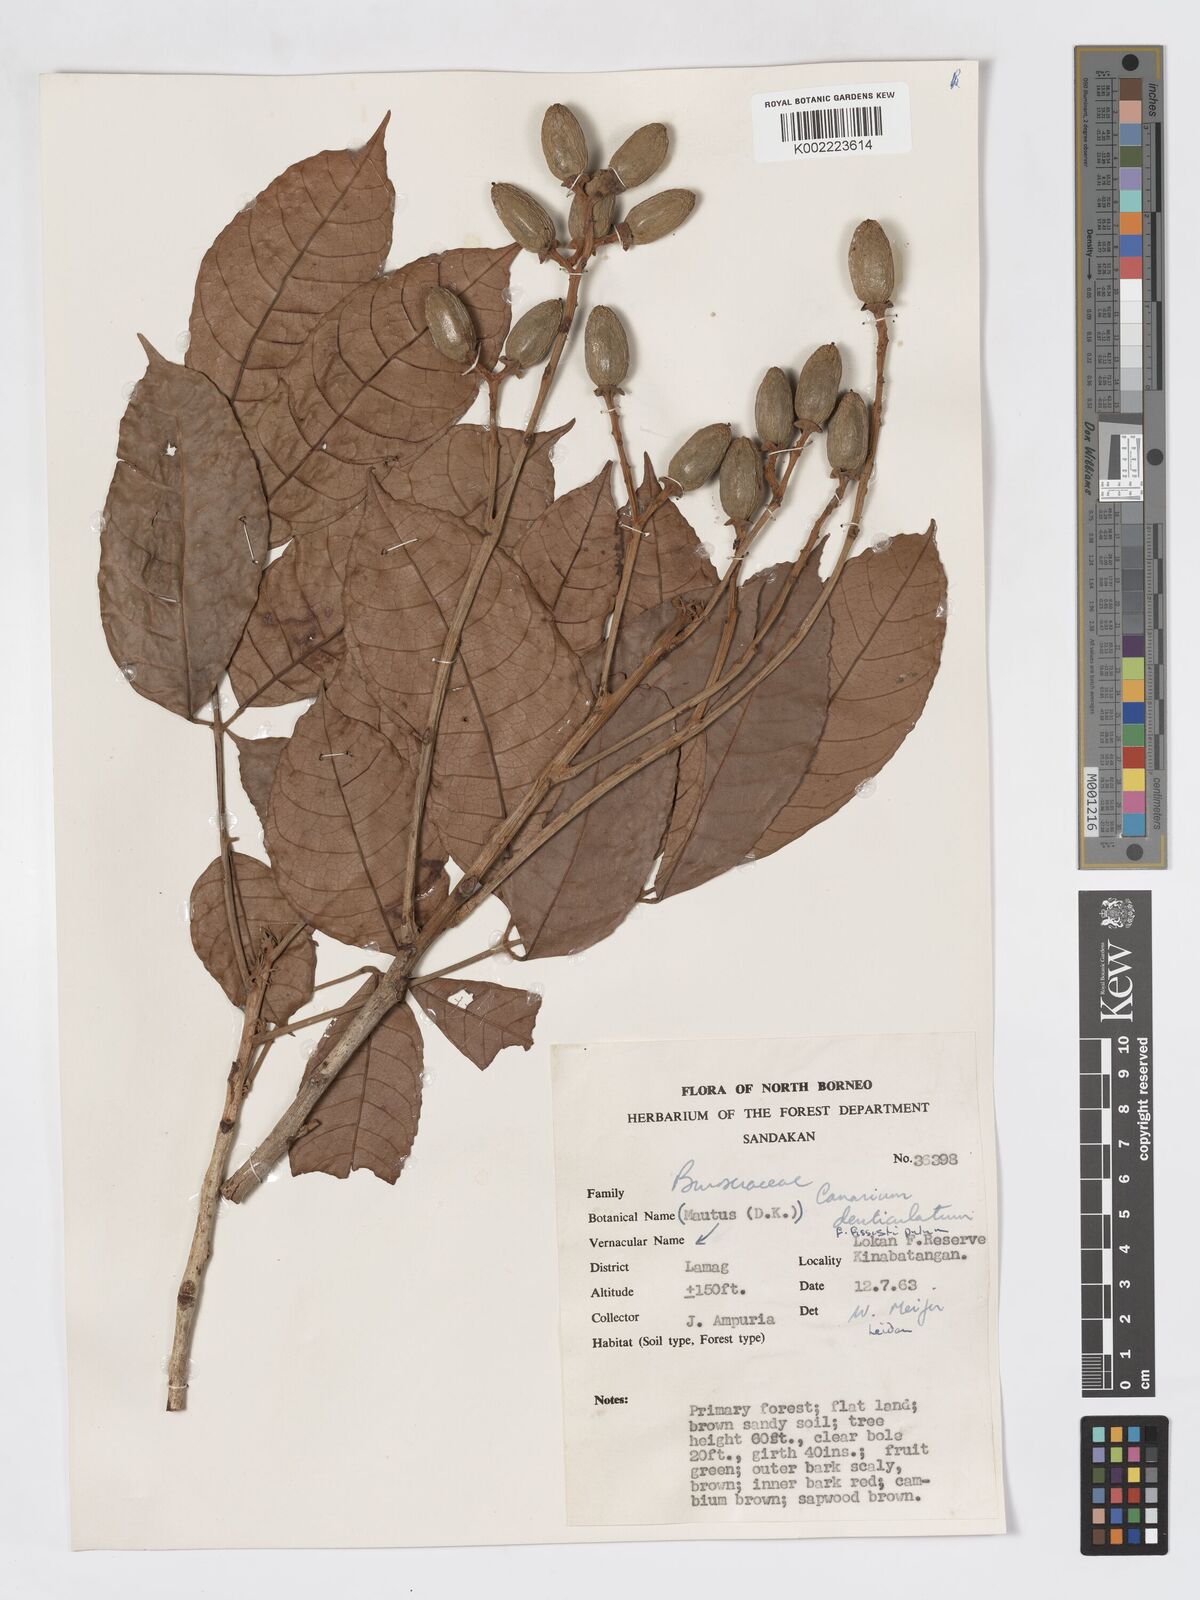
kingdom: Plantae
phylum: Tracheophyta
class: Magnoliopsida
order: Sapindales
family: Burseraceae
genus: Canarium
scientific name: Canarium denticulatum
